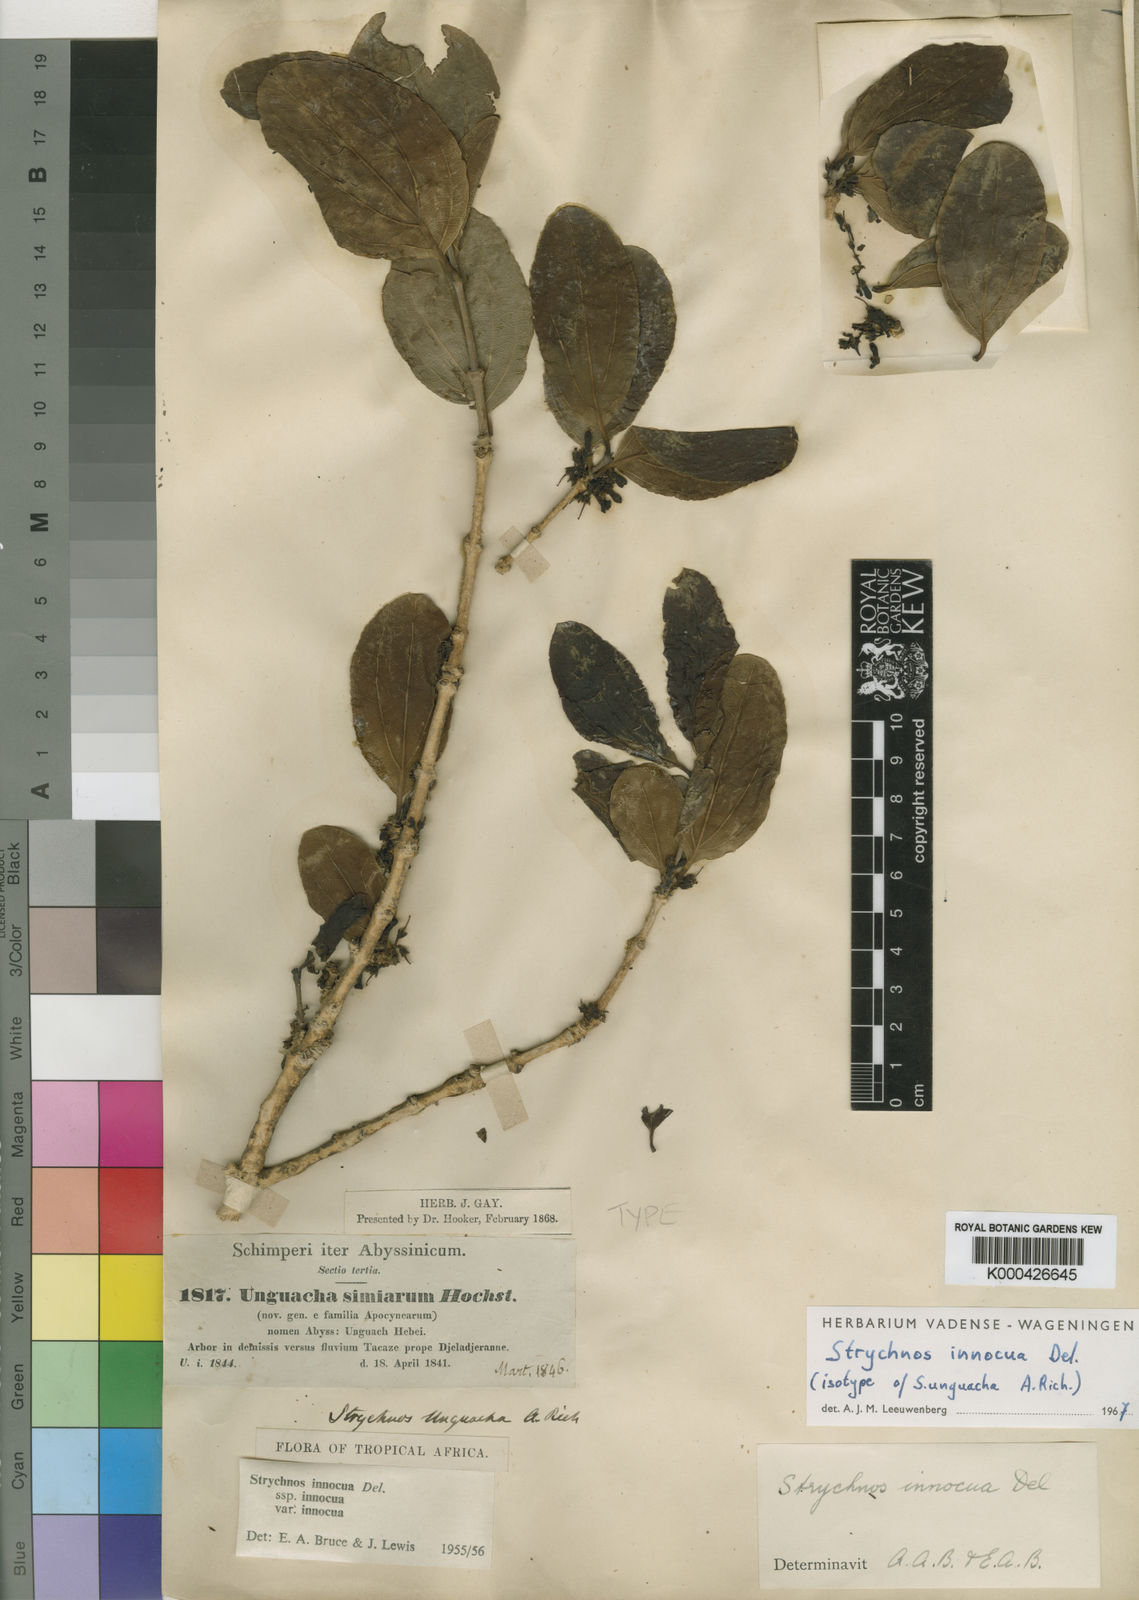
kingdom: Plantae
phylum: Tracheophyta
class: Magnoliopsida
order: Gentianales
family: Loganiaceae
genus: Strychnos
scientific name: Strychnos innocua
